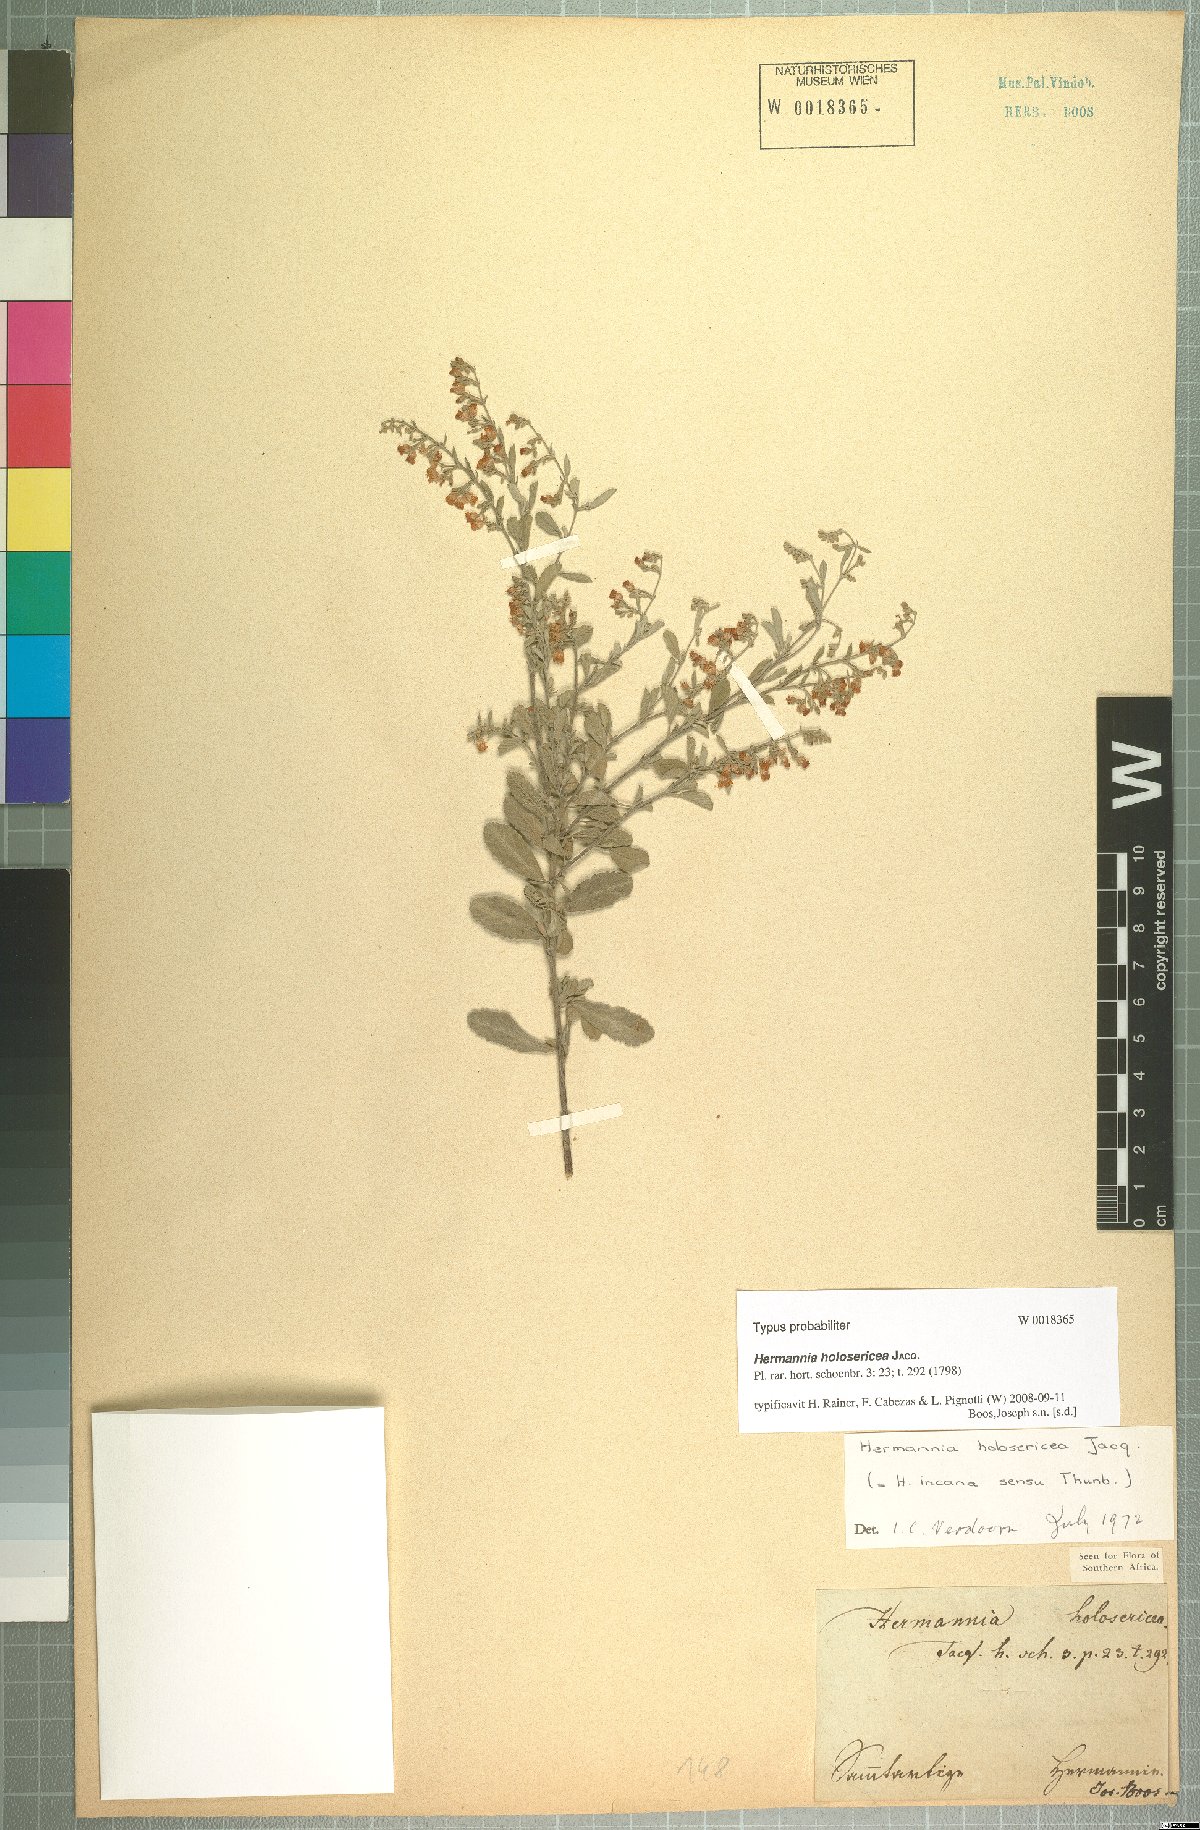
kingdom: Plantae
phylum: Tracheophyta
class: Magnoliopsida
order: Malvales
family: Malvaceae
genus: Hermannia
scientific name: Hermannia holosericea
